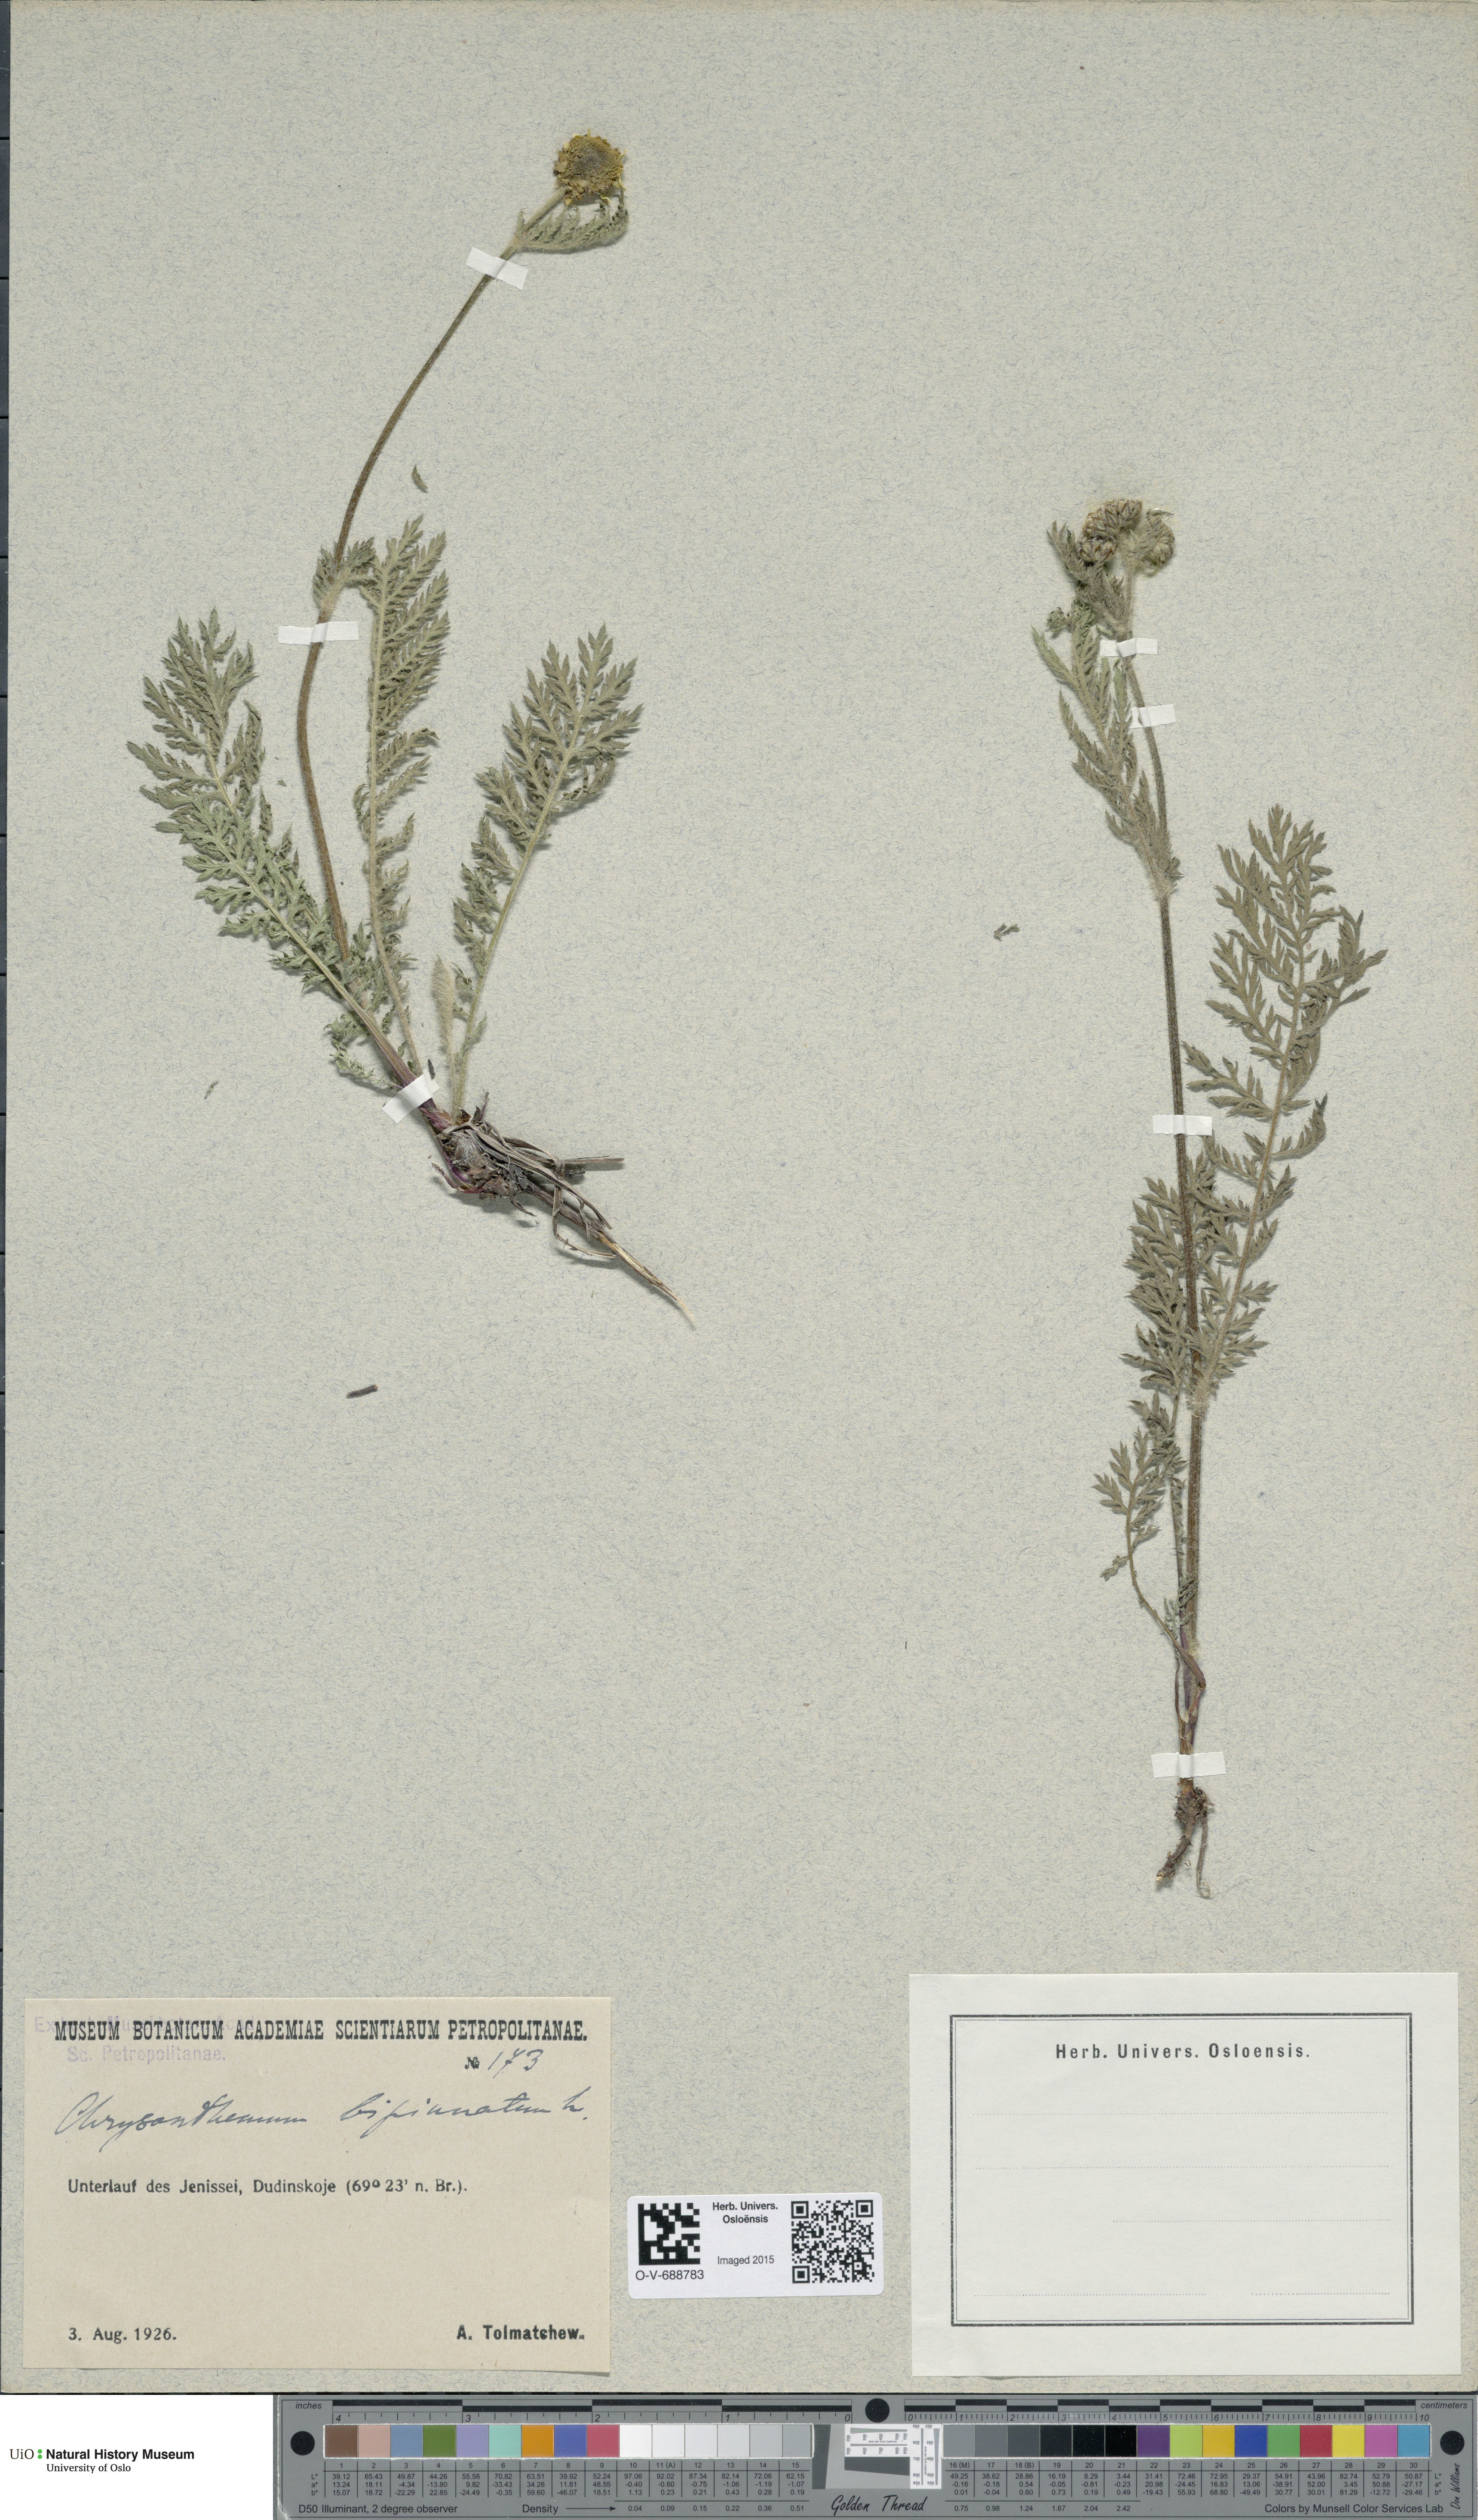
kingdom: Plantae
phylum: Tracheophyta
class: Magnoliopsida
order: Asterales
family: Asteraceae
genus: Tanacetum
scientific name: Tanacetum bipinnatum
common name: Dwarf tansy
